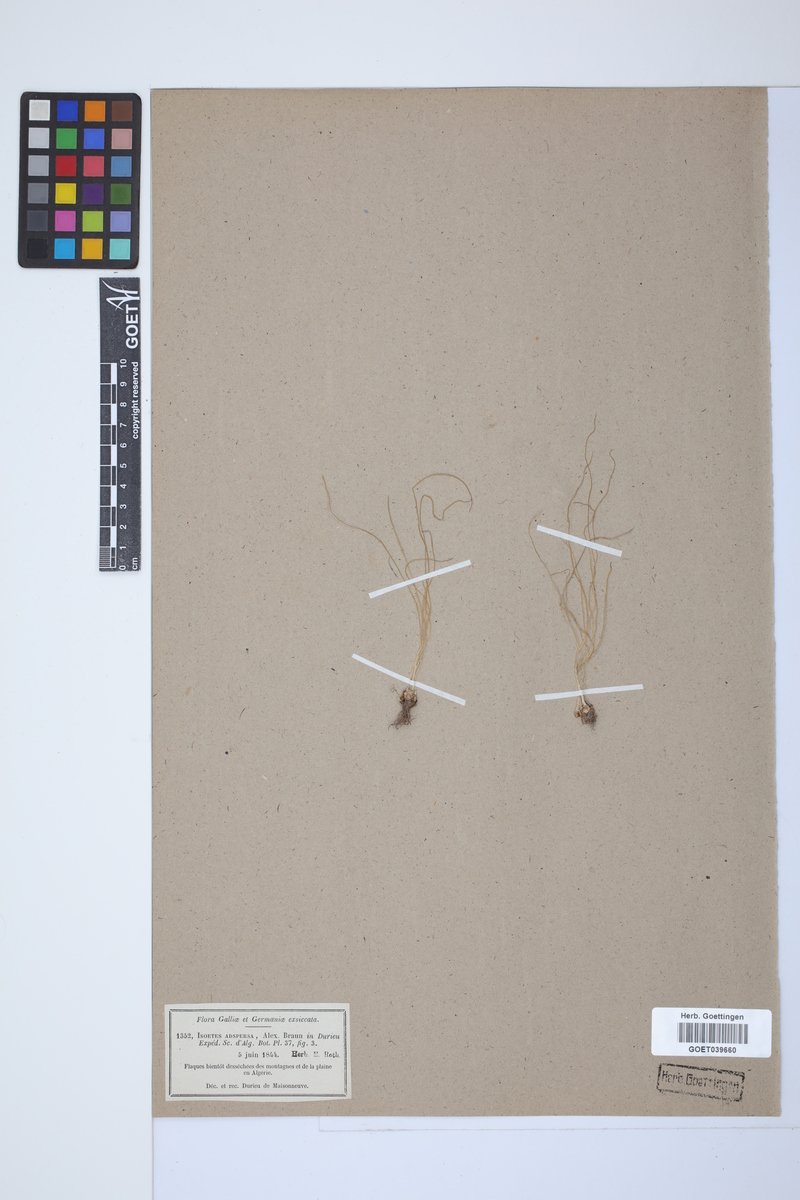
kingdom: Plantae
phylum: Tracheophyta
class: Lycopodiopsida
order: Isoetales
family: Isoetaceae
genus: Isoetes
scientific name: Isoetes longissima
